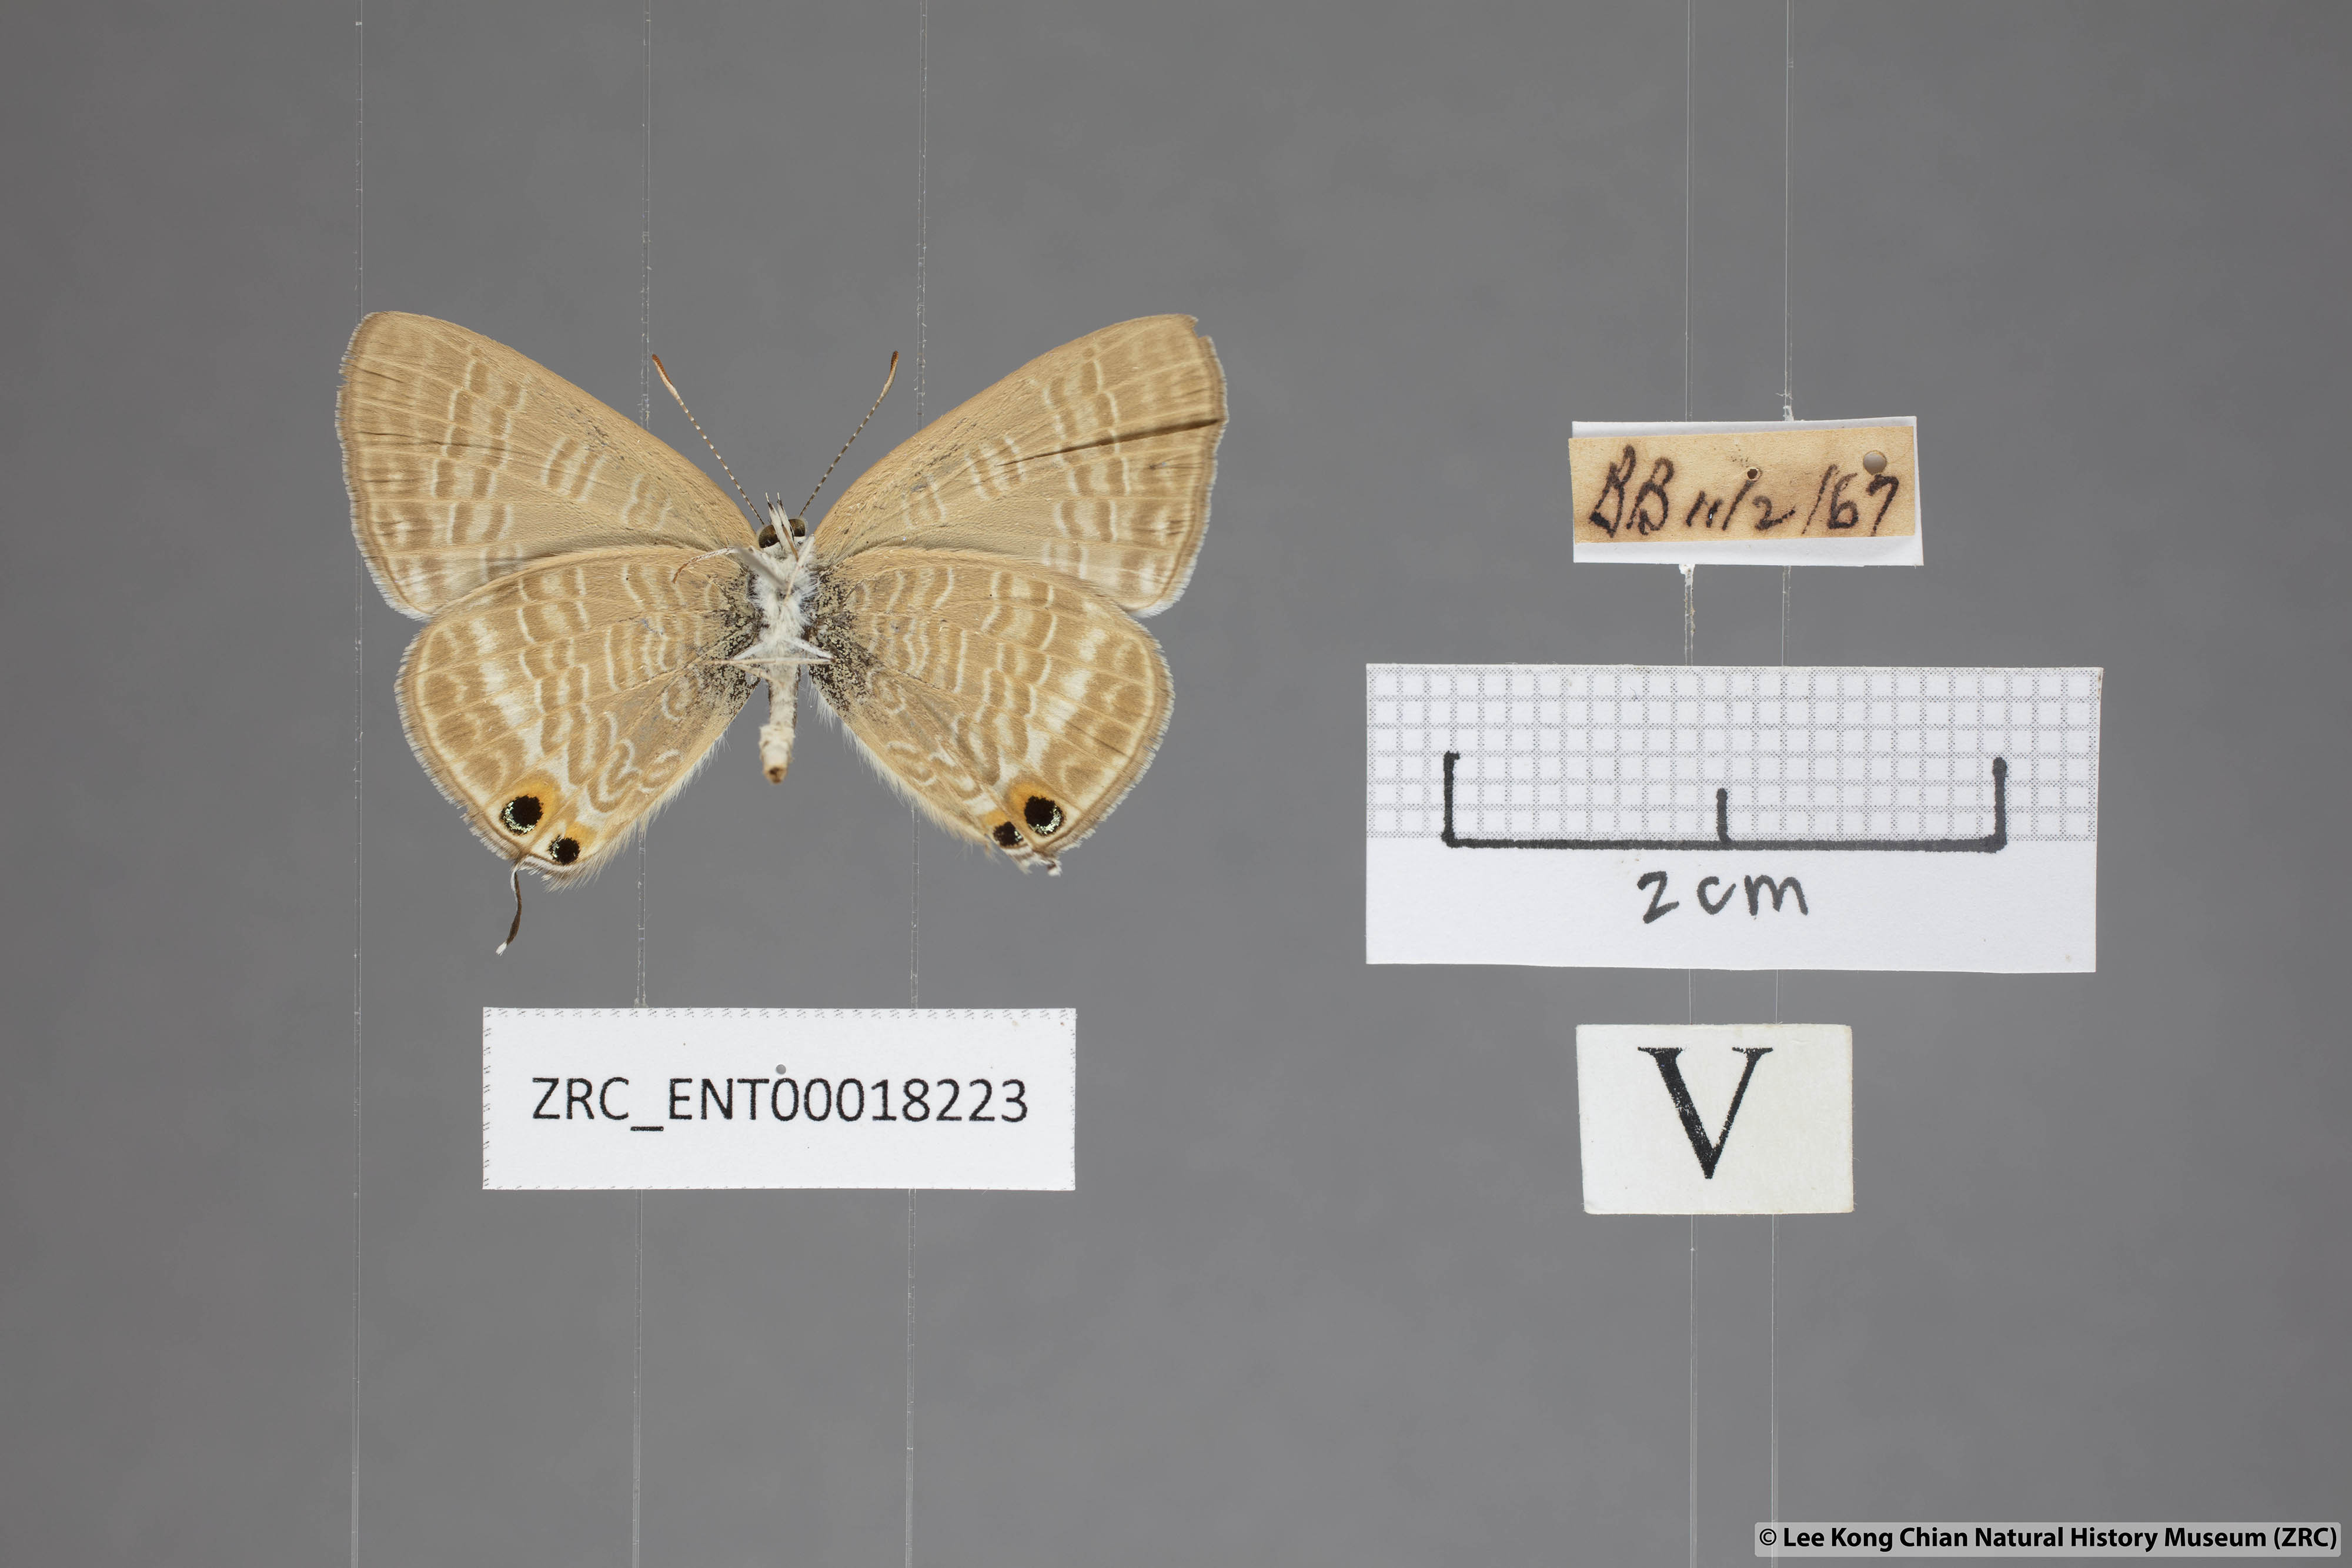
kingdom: Animalia
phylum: Arthropoda
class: Insecta
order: Lepidoptera
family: Lycaenidae
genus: Lampides
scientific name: Lampides boeticus
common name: Long-tailed blue
